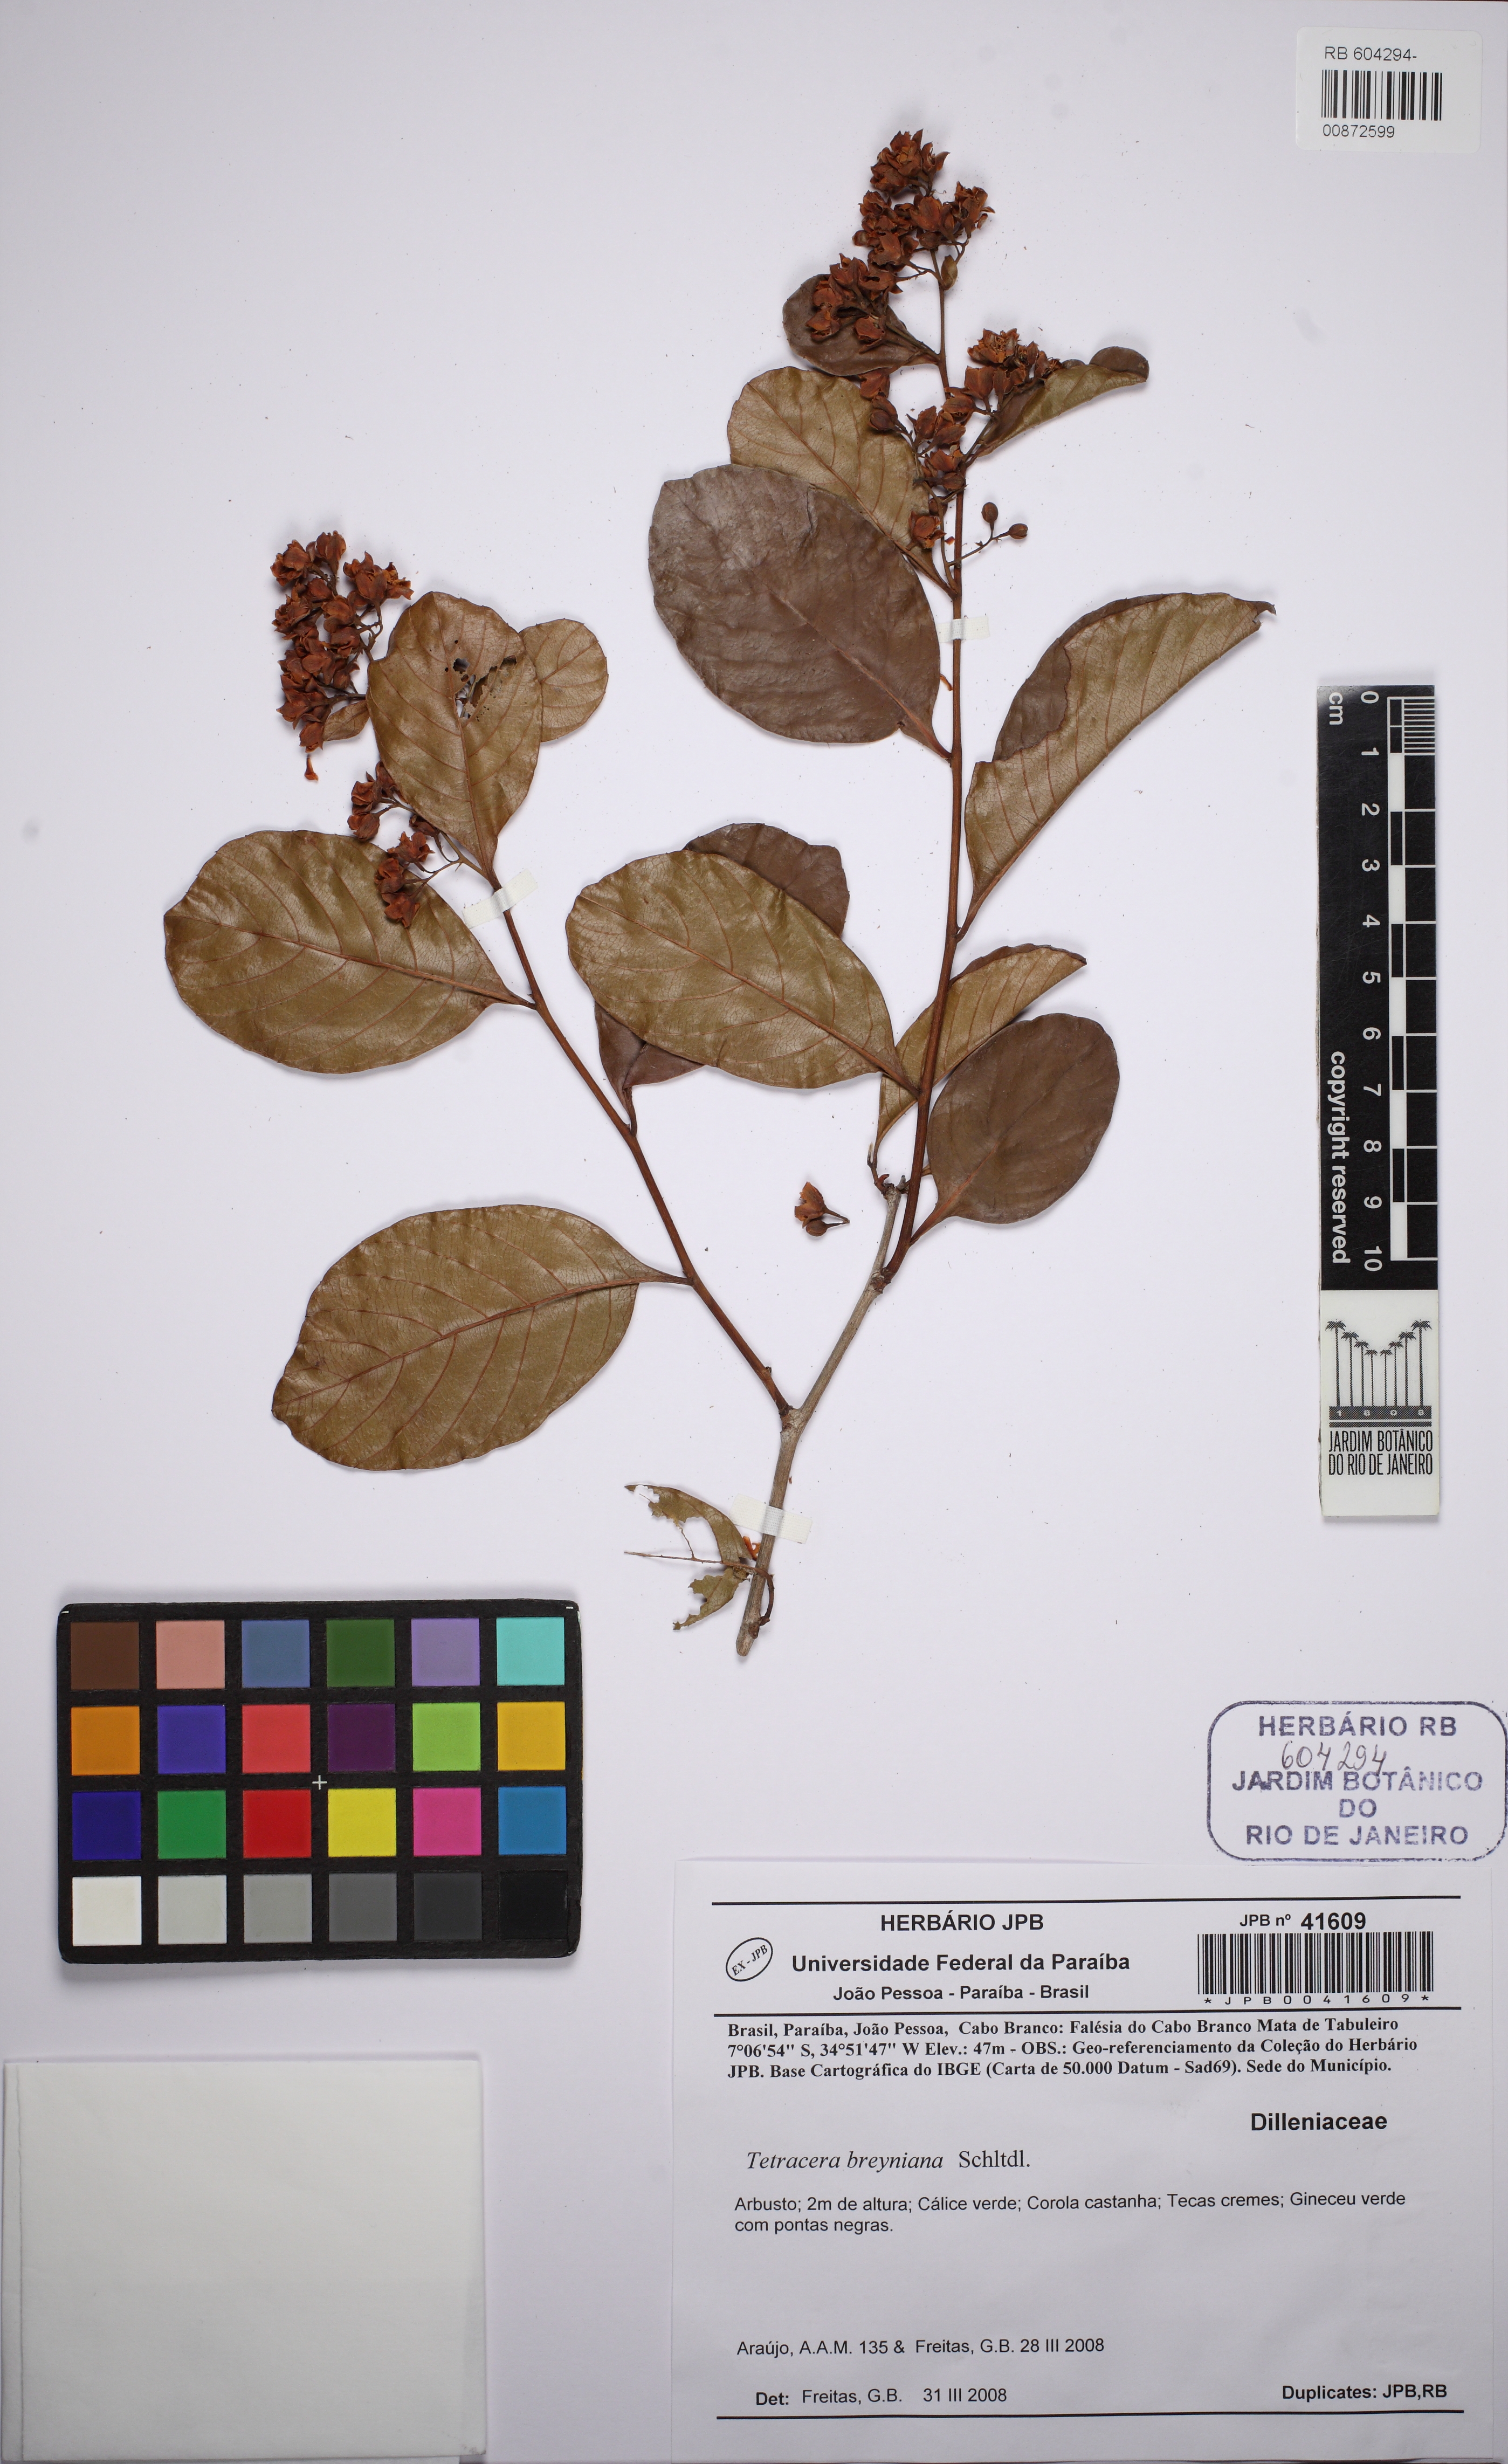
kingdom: Plantae
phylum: Tracheophyta
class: Magnoliopsida
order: Dilleniales
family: Dilleniaceae
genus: Tetracera
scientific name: Tetracera breyniana
